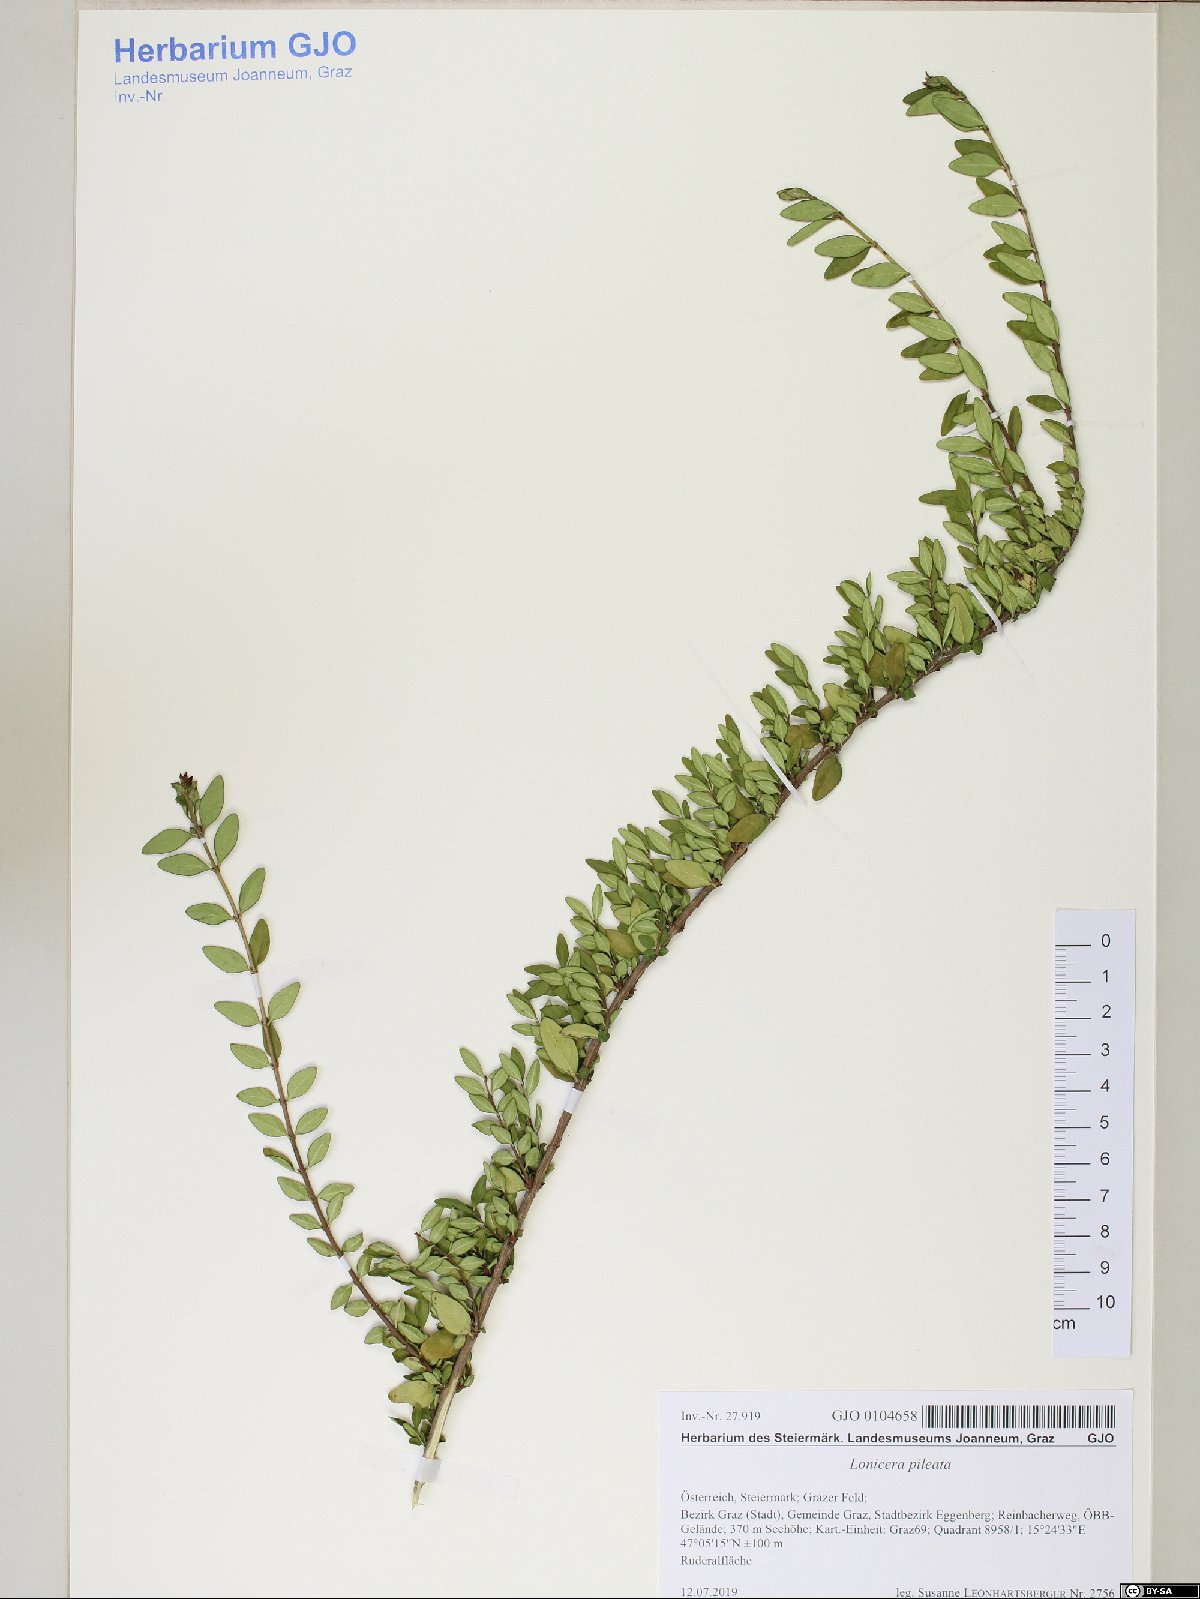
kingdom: Plantae
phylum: Tracheophyta
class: Magnoliopsida
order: Dipsacales
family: Caprifoliaceae
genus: Lonicera
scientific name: Lonicera pileata
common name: Box-leaved honeysuckle
